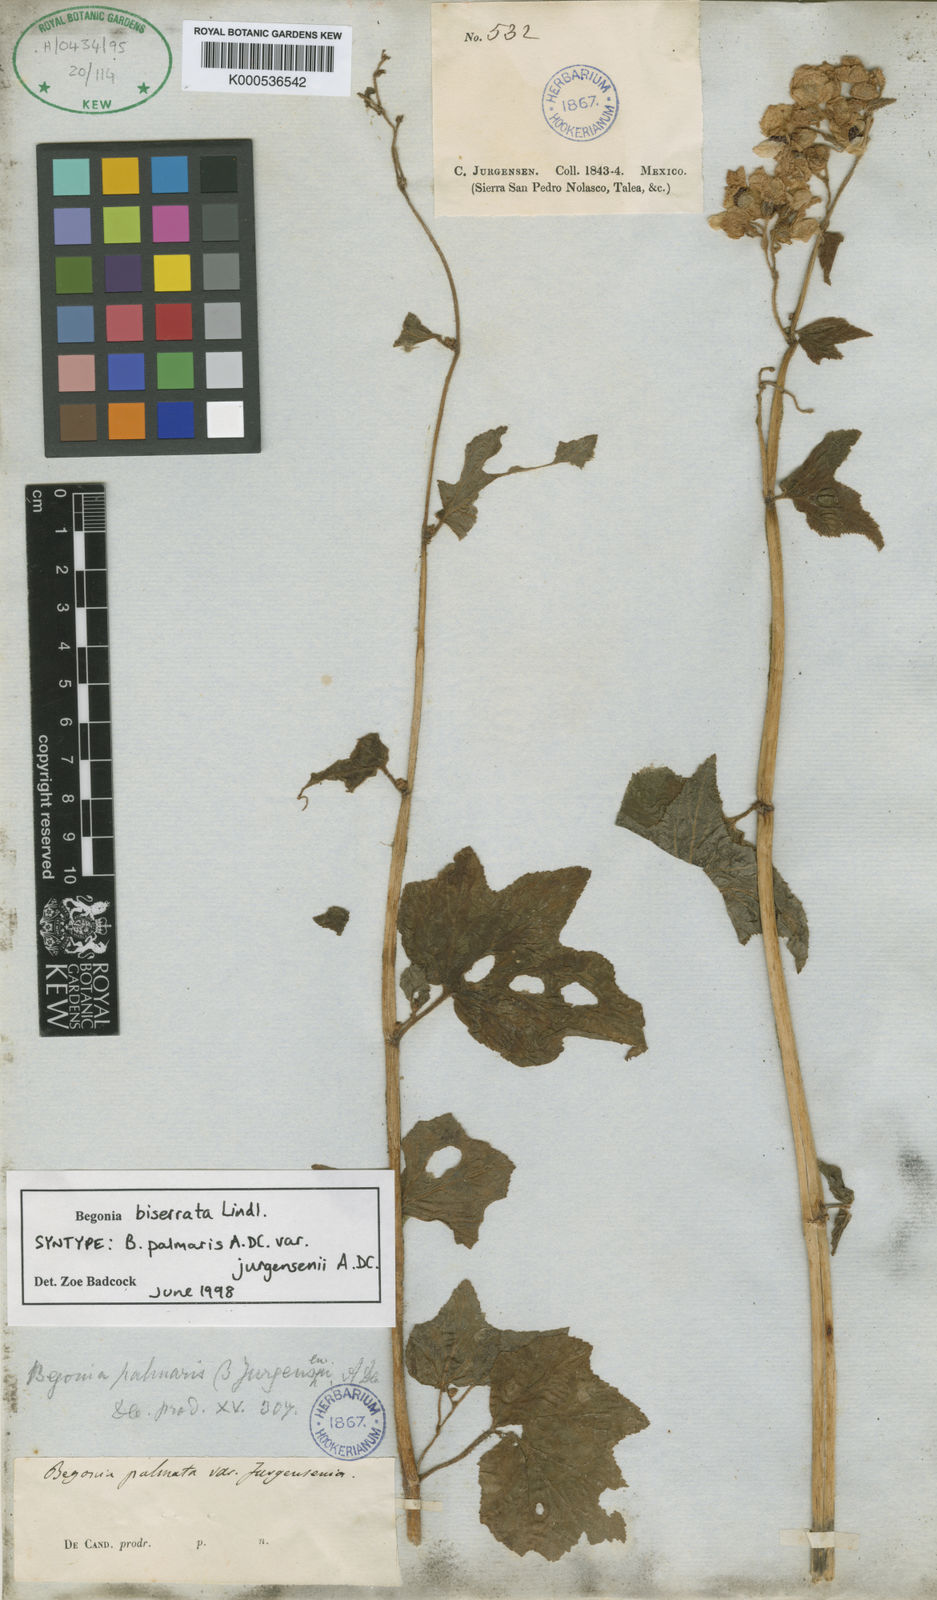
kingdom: Plantae
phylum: Tracheophyta
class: Magnoliopsida
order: Cucurbitales
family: Begoniaceae
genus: Begonia
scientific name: Begonia biserrata
